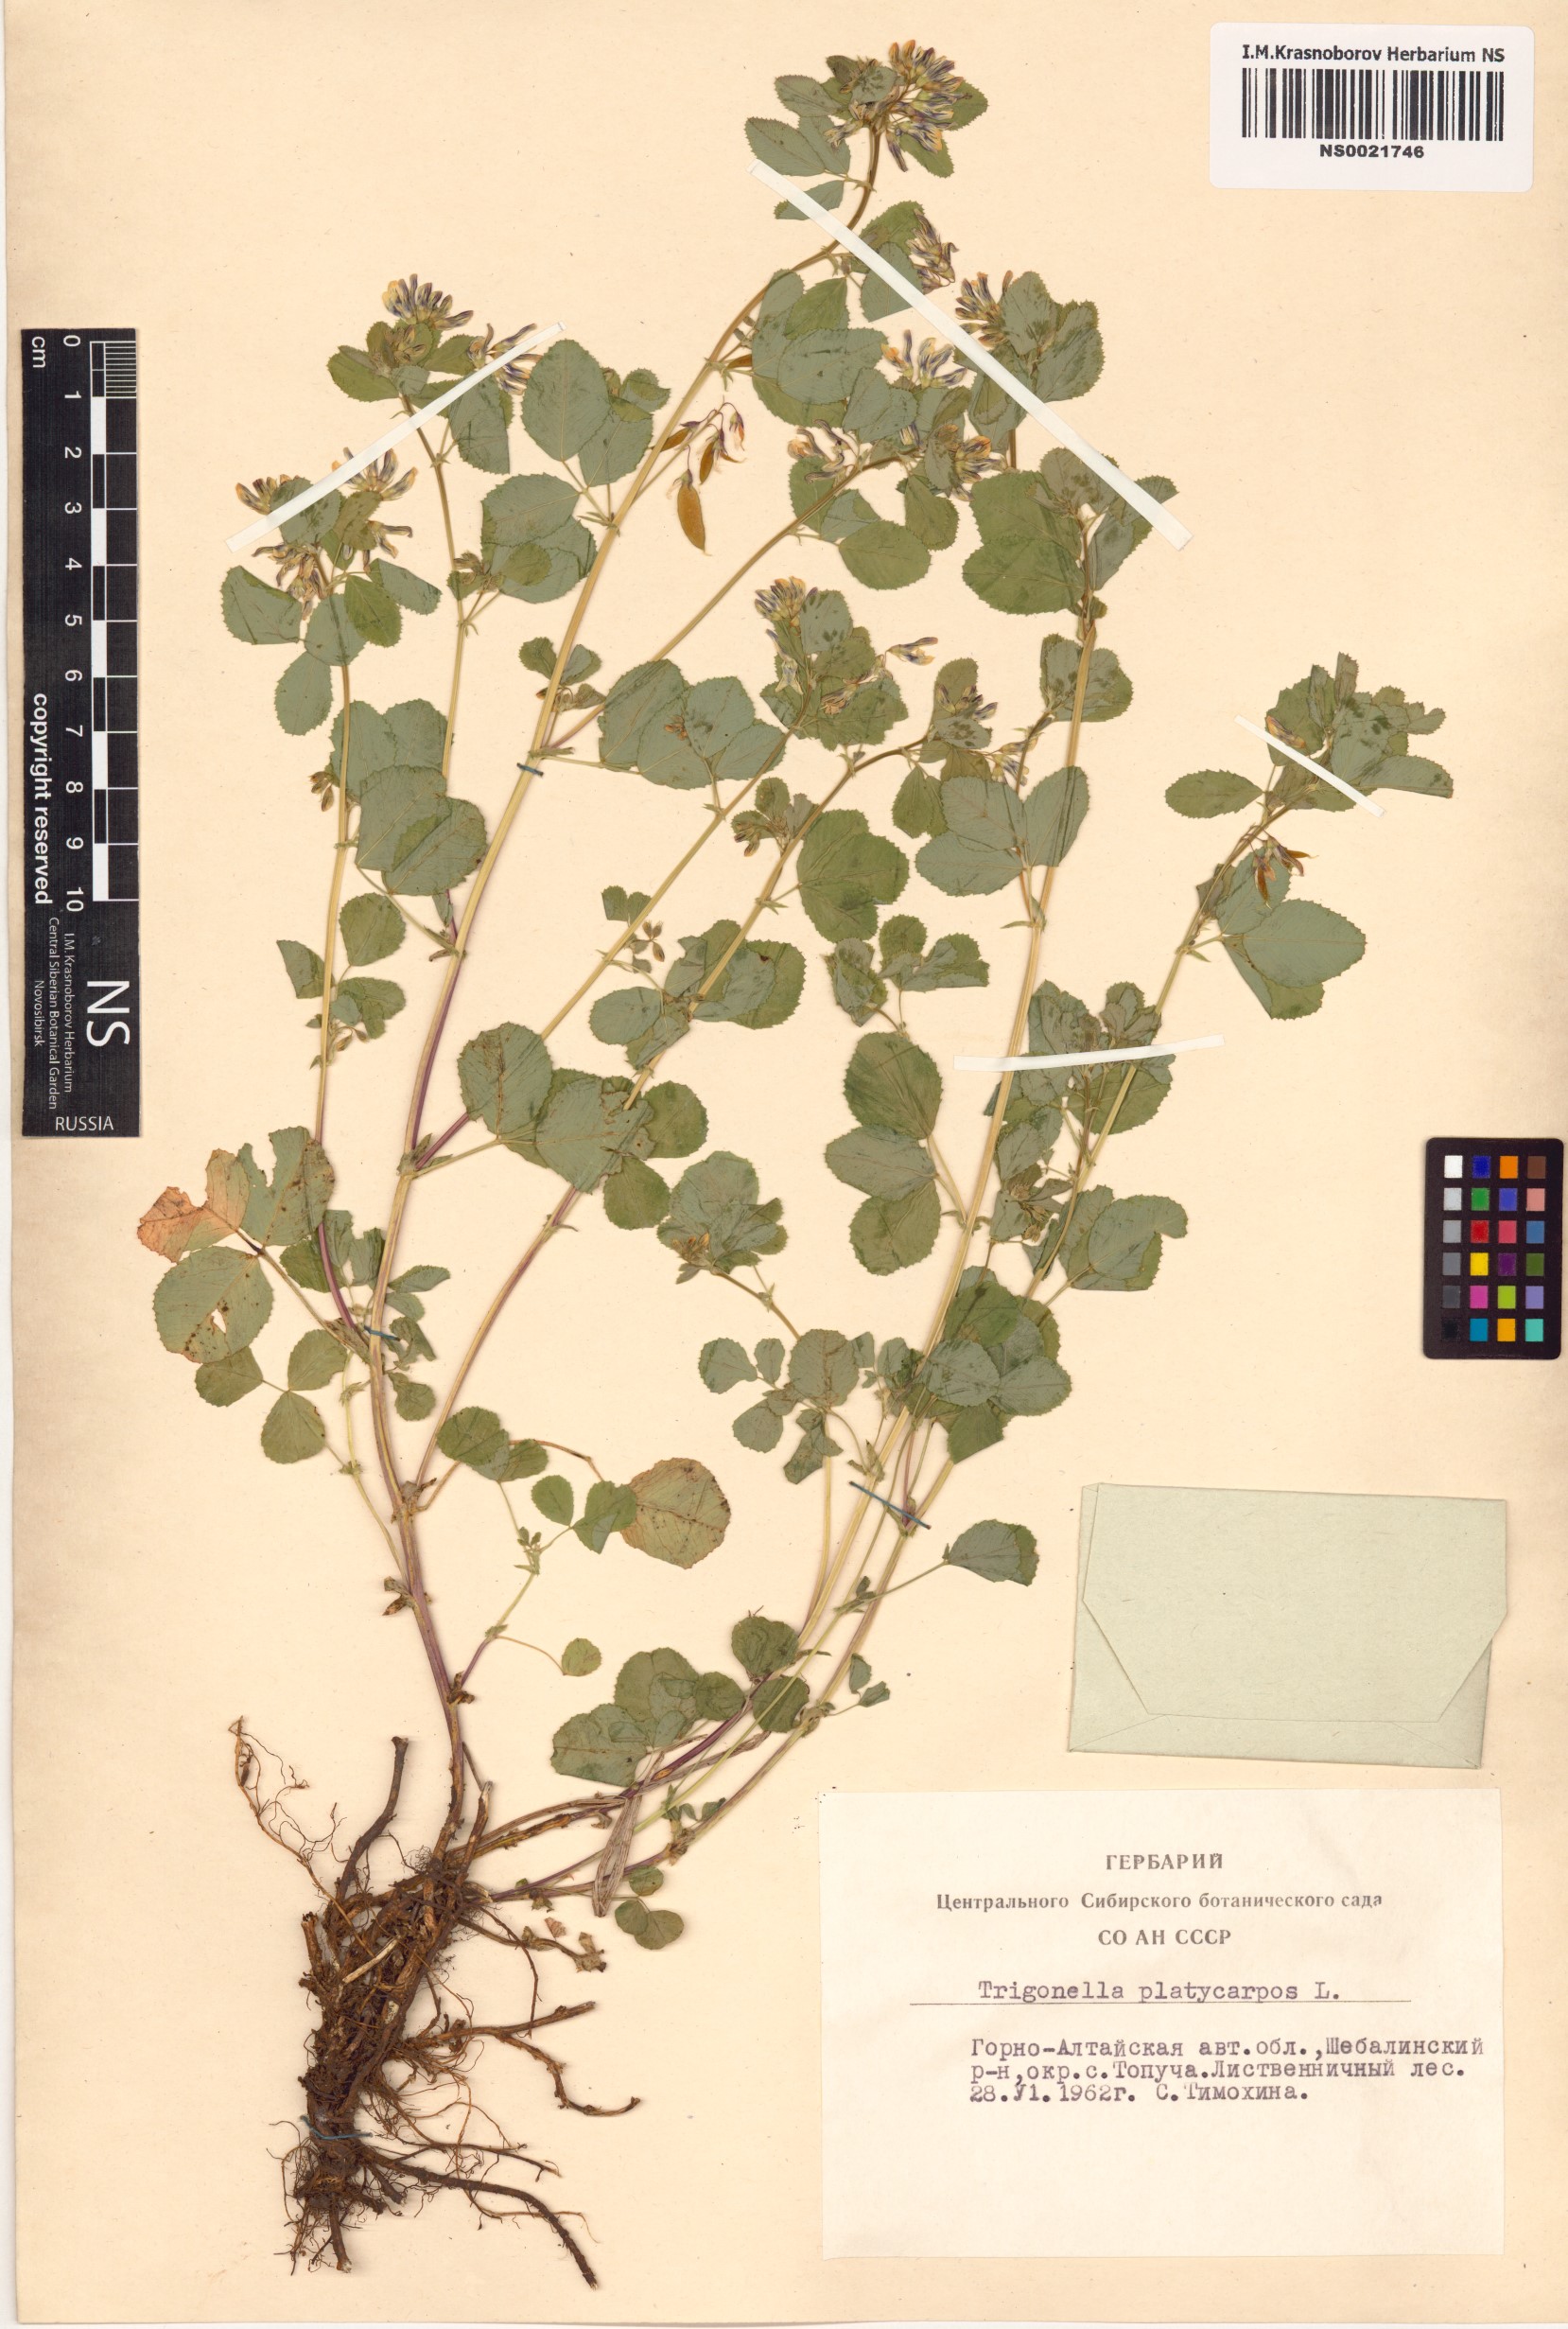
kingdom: Plantae
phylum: Tracheophyta
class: Magnoliopsida
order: Fabales
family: Fabaceae
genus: Medicago
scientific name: Medicago platycarpos
